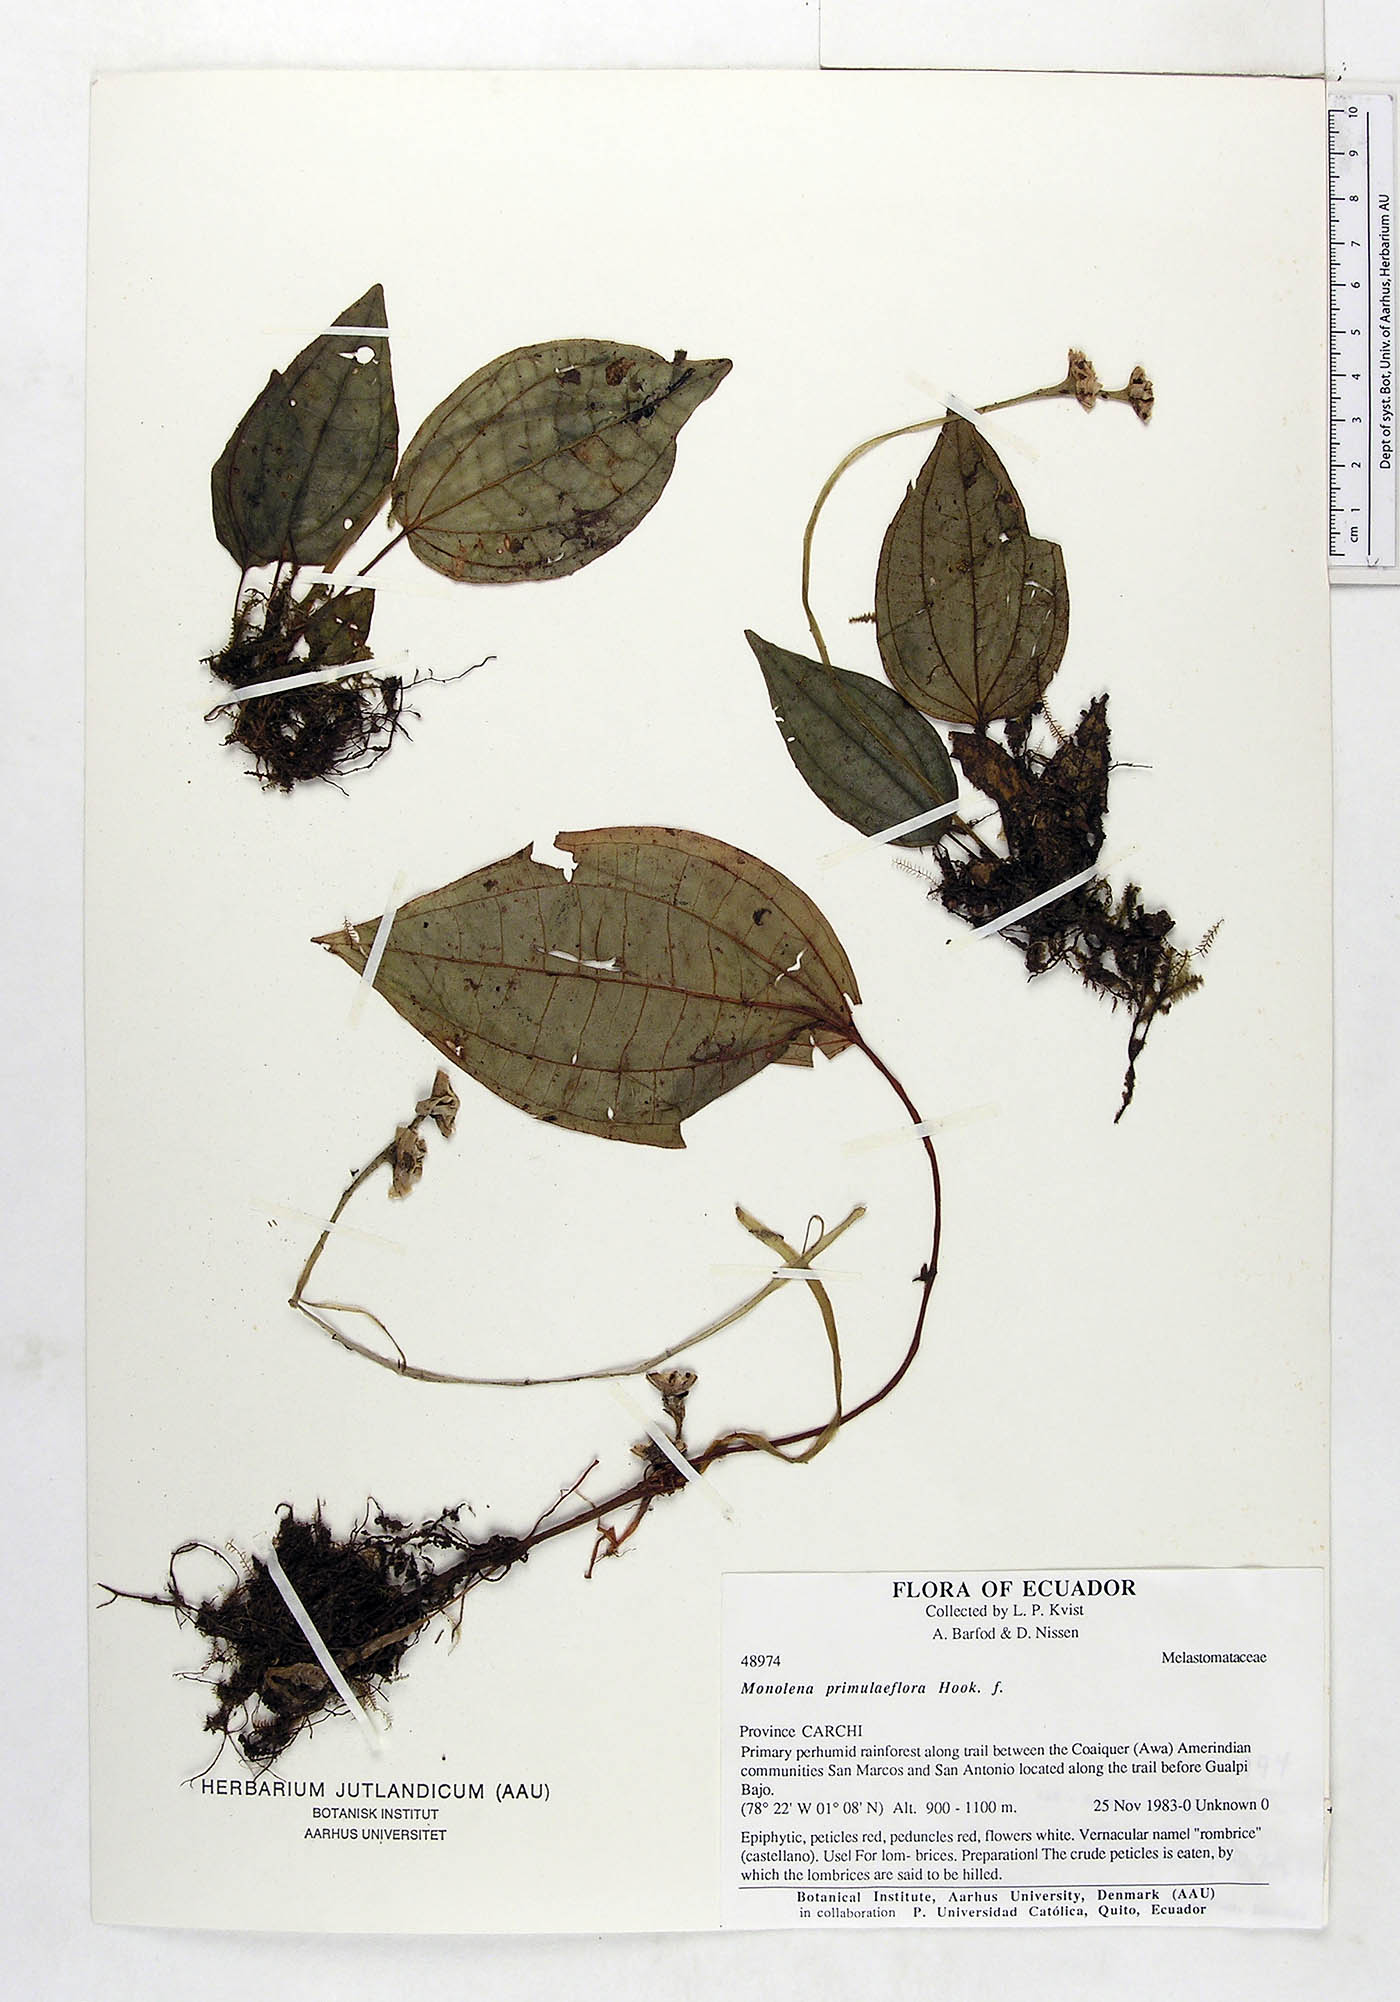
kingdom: Plantae
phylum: Tracheophyta
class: Magnoliopsida
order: Myrtales
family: Melastomataceae
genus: Monolena
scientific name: Monolena primuliflora
